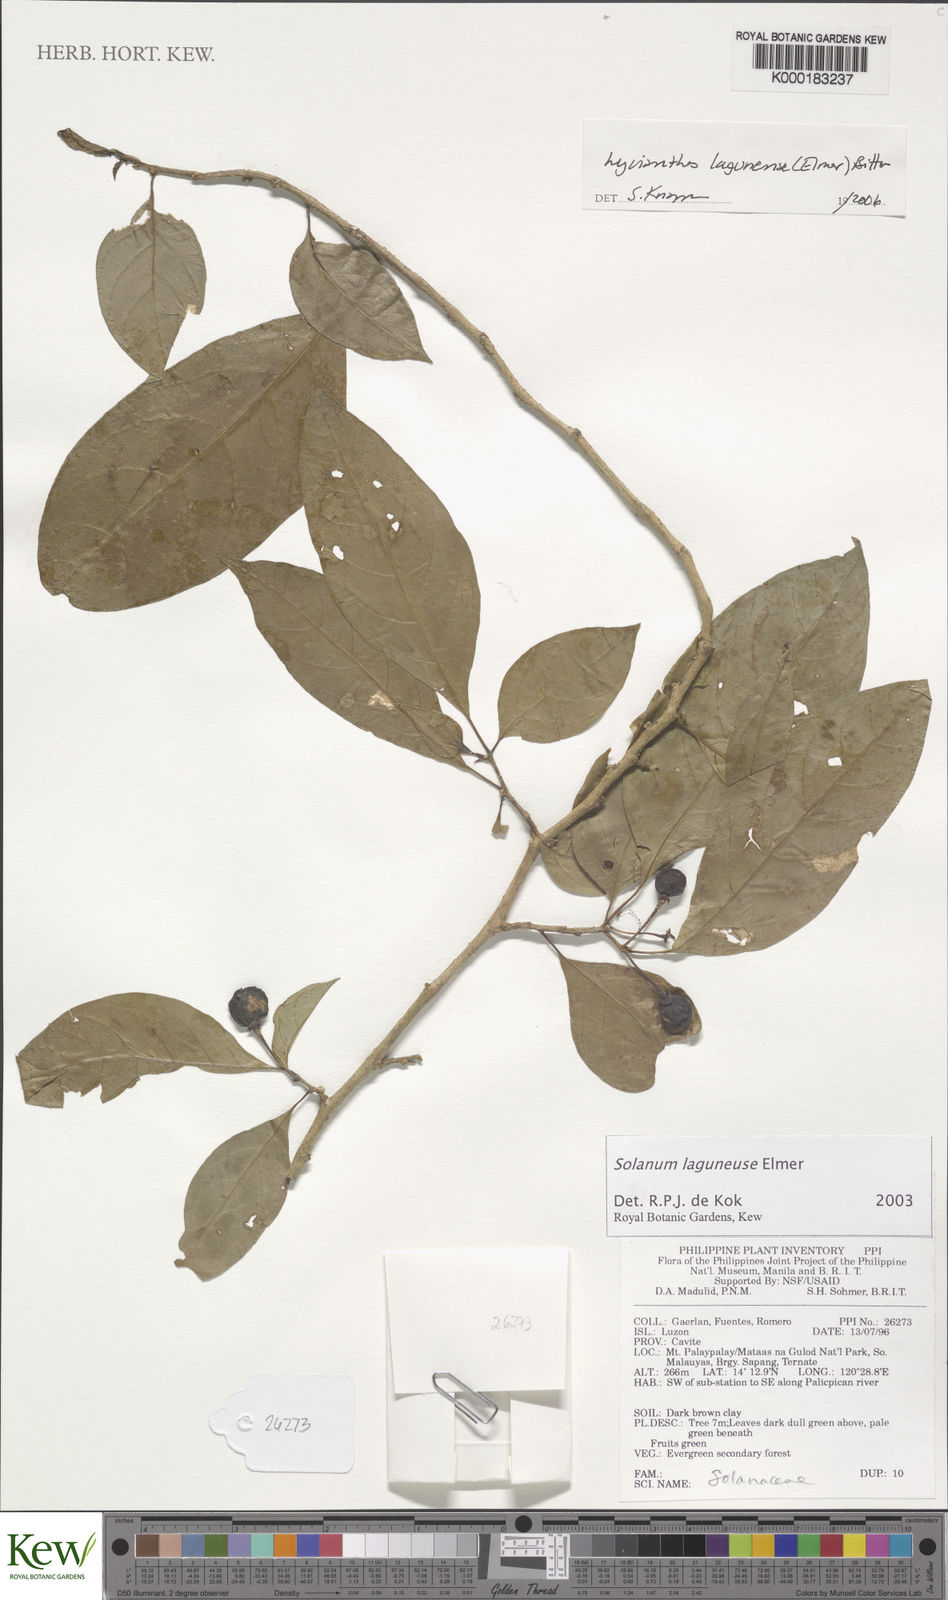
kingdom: Plantae
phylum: Tracheophyta
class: Magnoliopsida
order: Solanales
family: Solanaceae
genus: Solanum
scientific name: Solanum
